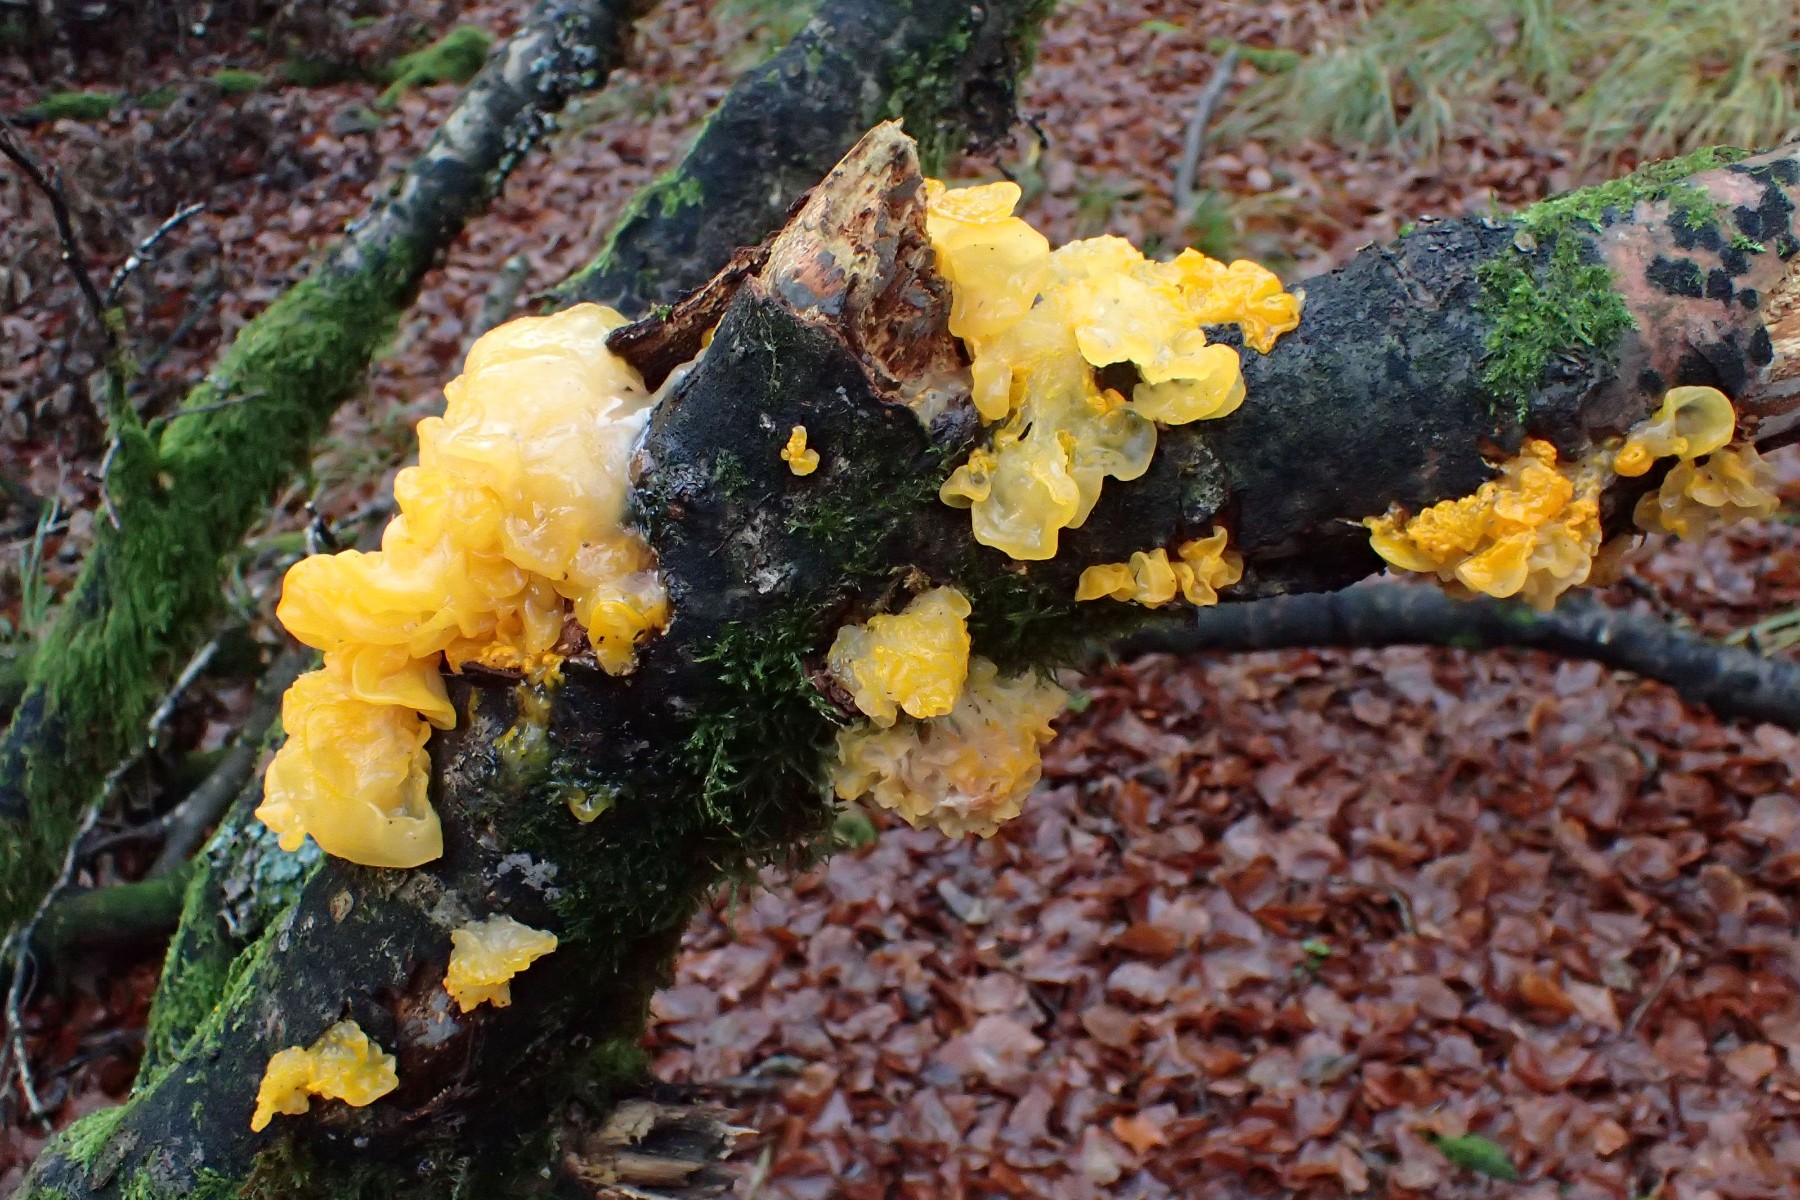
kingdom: Fungi
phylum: Basidiomycota
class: Tremellomycetes
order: Tremellales
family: Tremellaceae
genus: Tremella
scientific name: Tremella mesenterica
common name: gul bævresvamp
